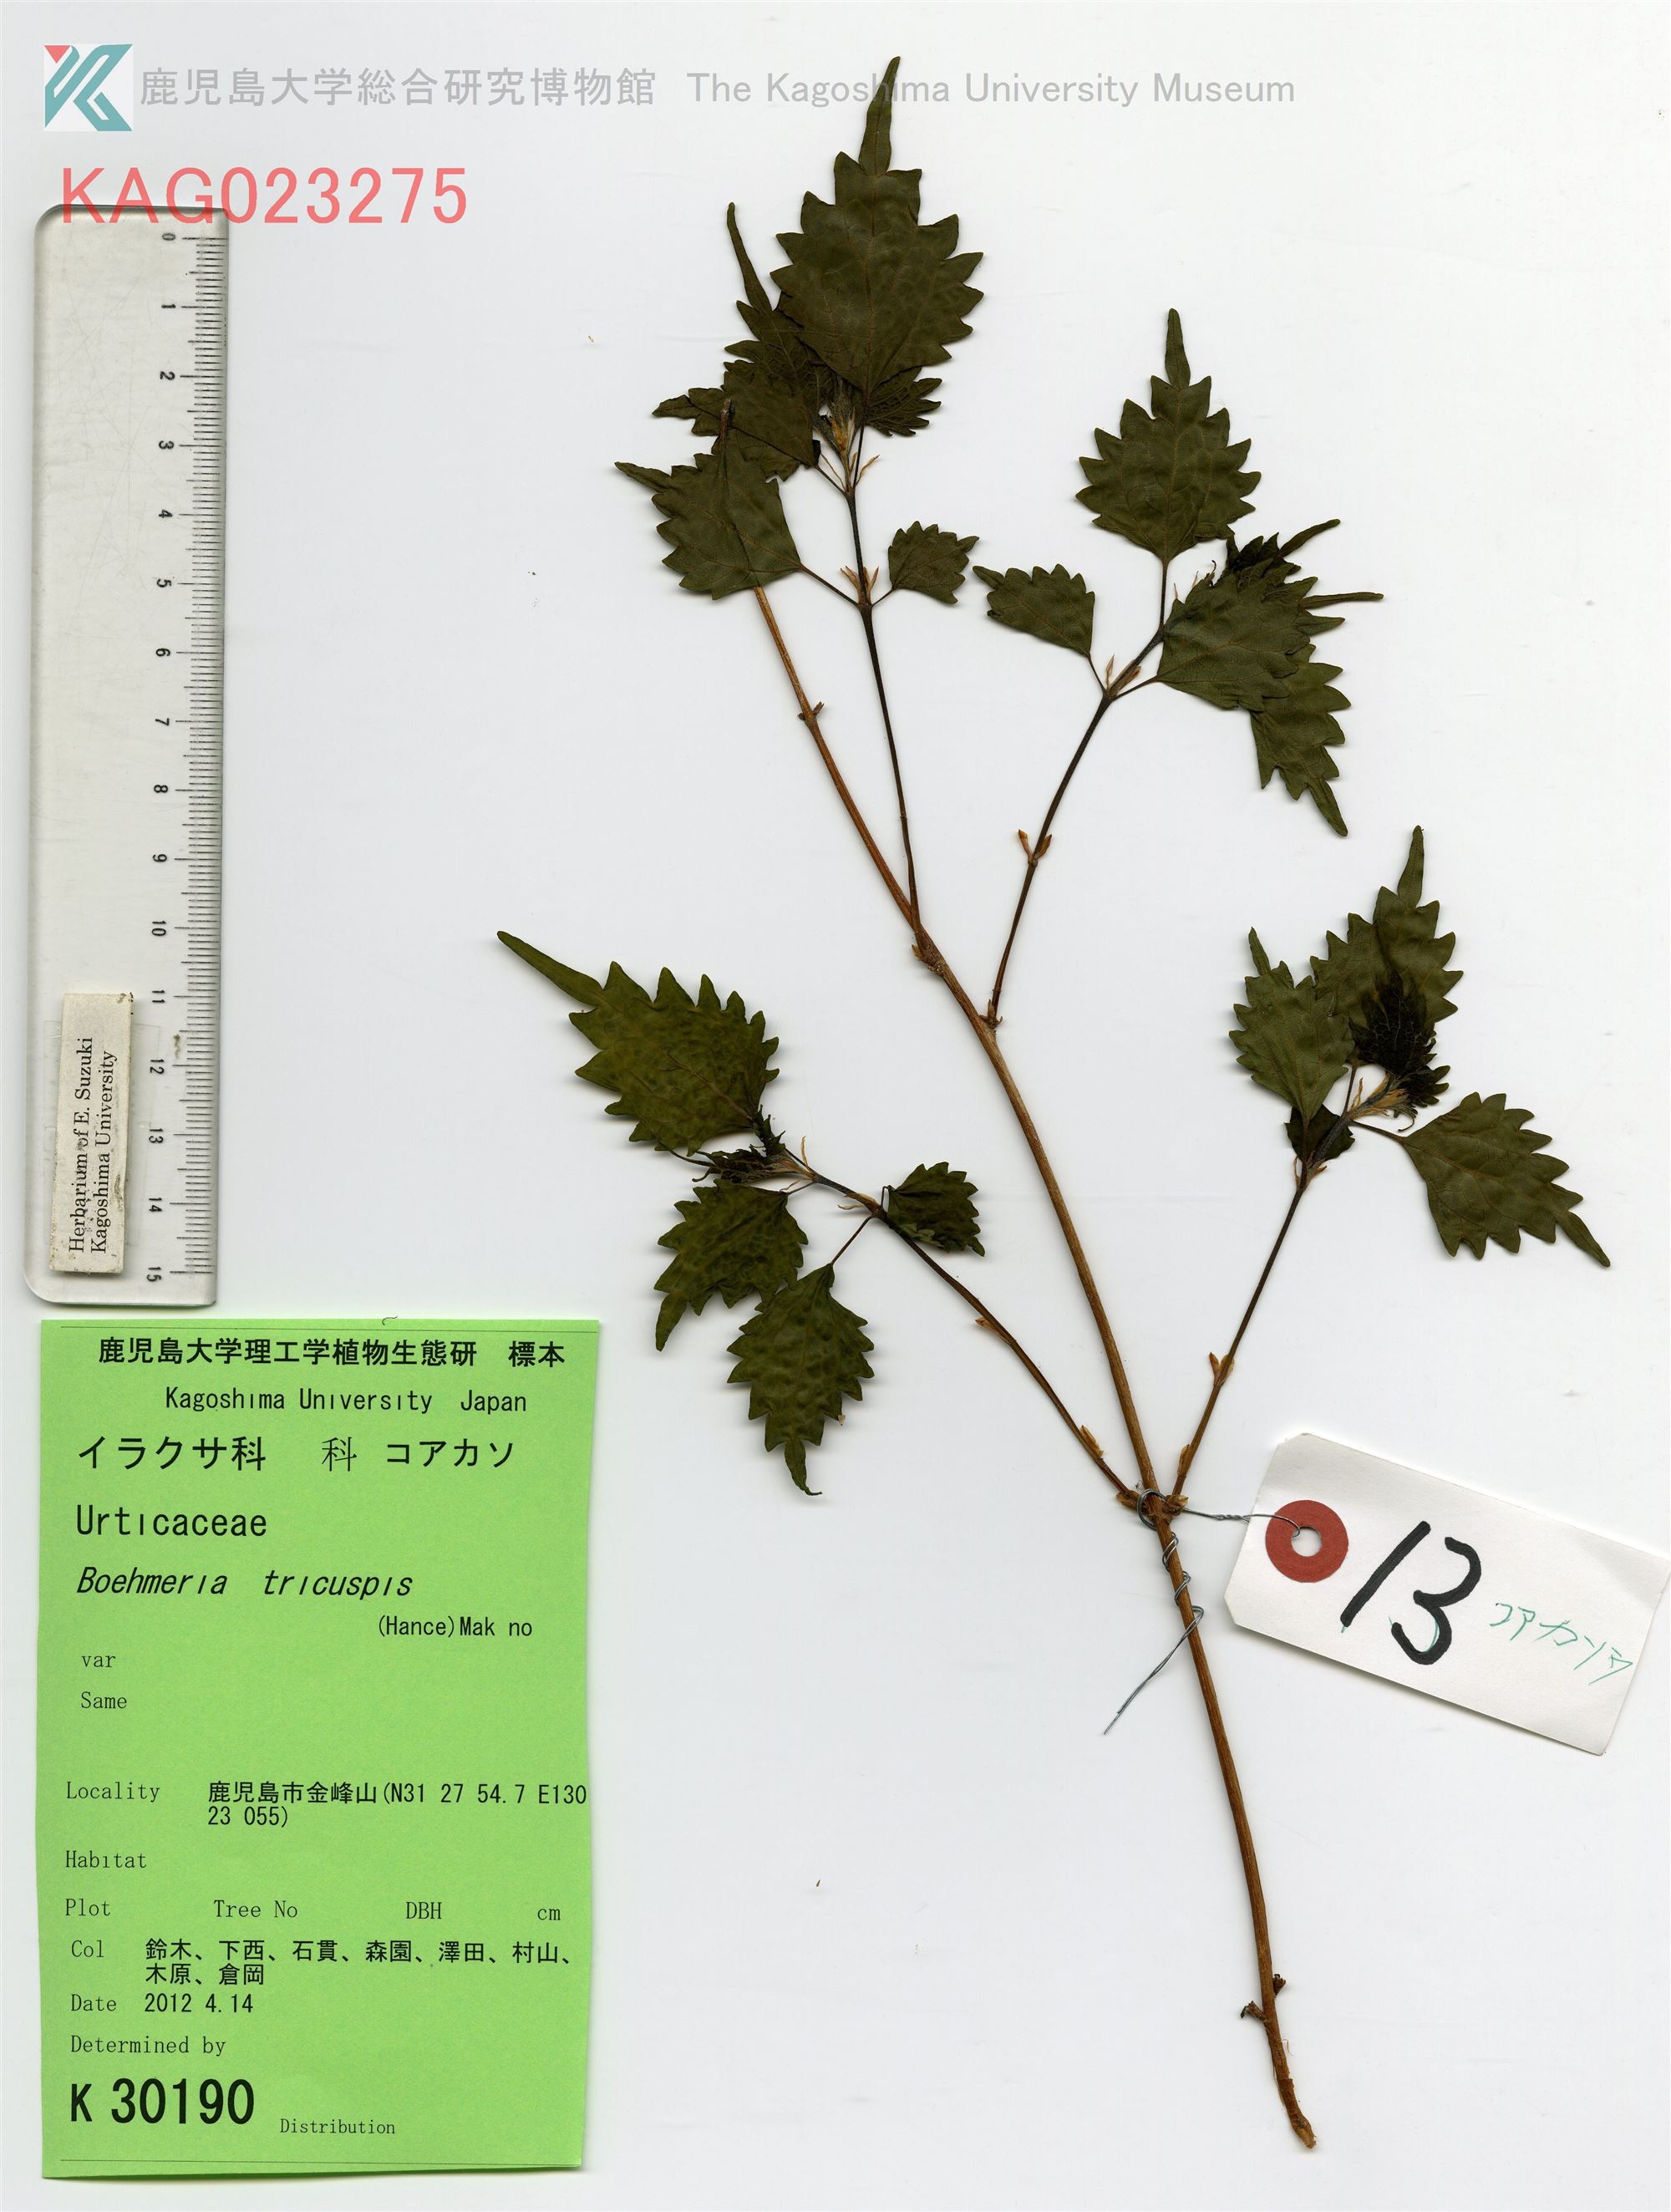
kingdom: Plantae
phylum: Tracheophyta
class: Magnoliopsida
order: Rosales
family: Urticaceae
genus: Boehmeria
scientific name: Boehmeria japonica
